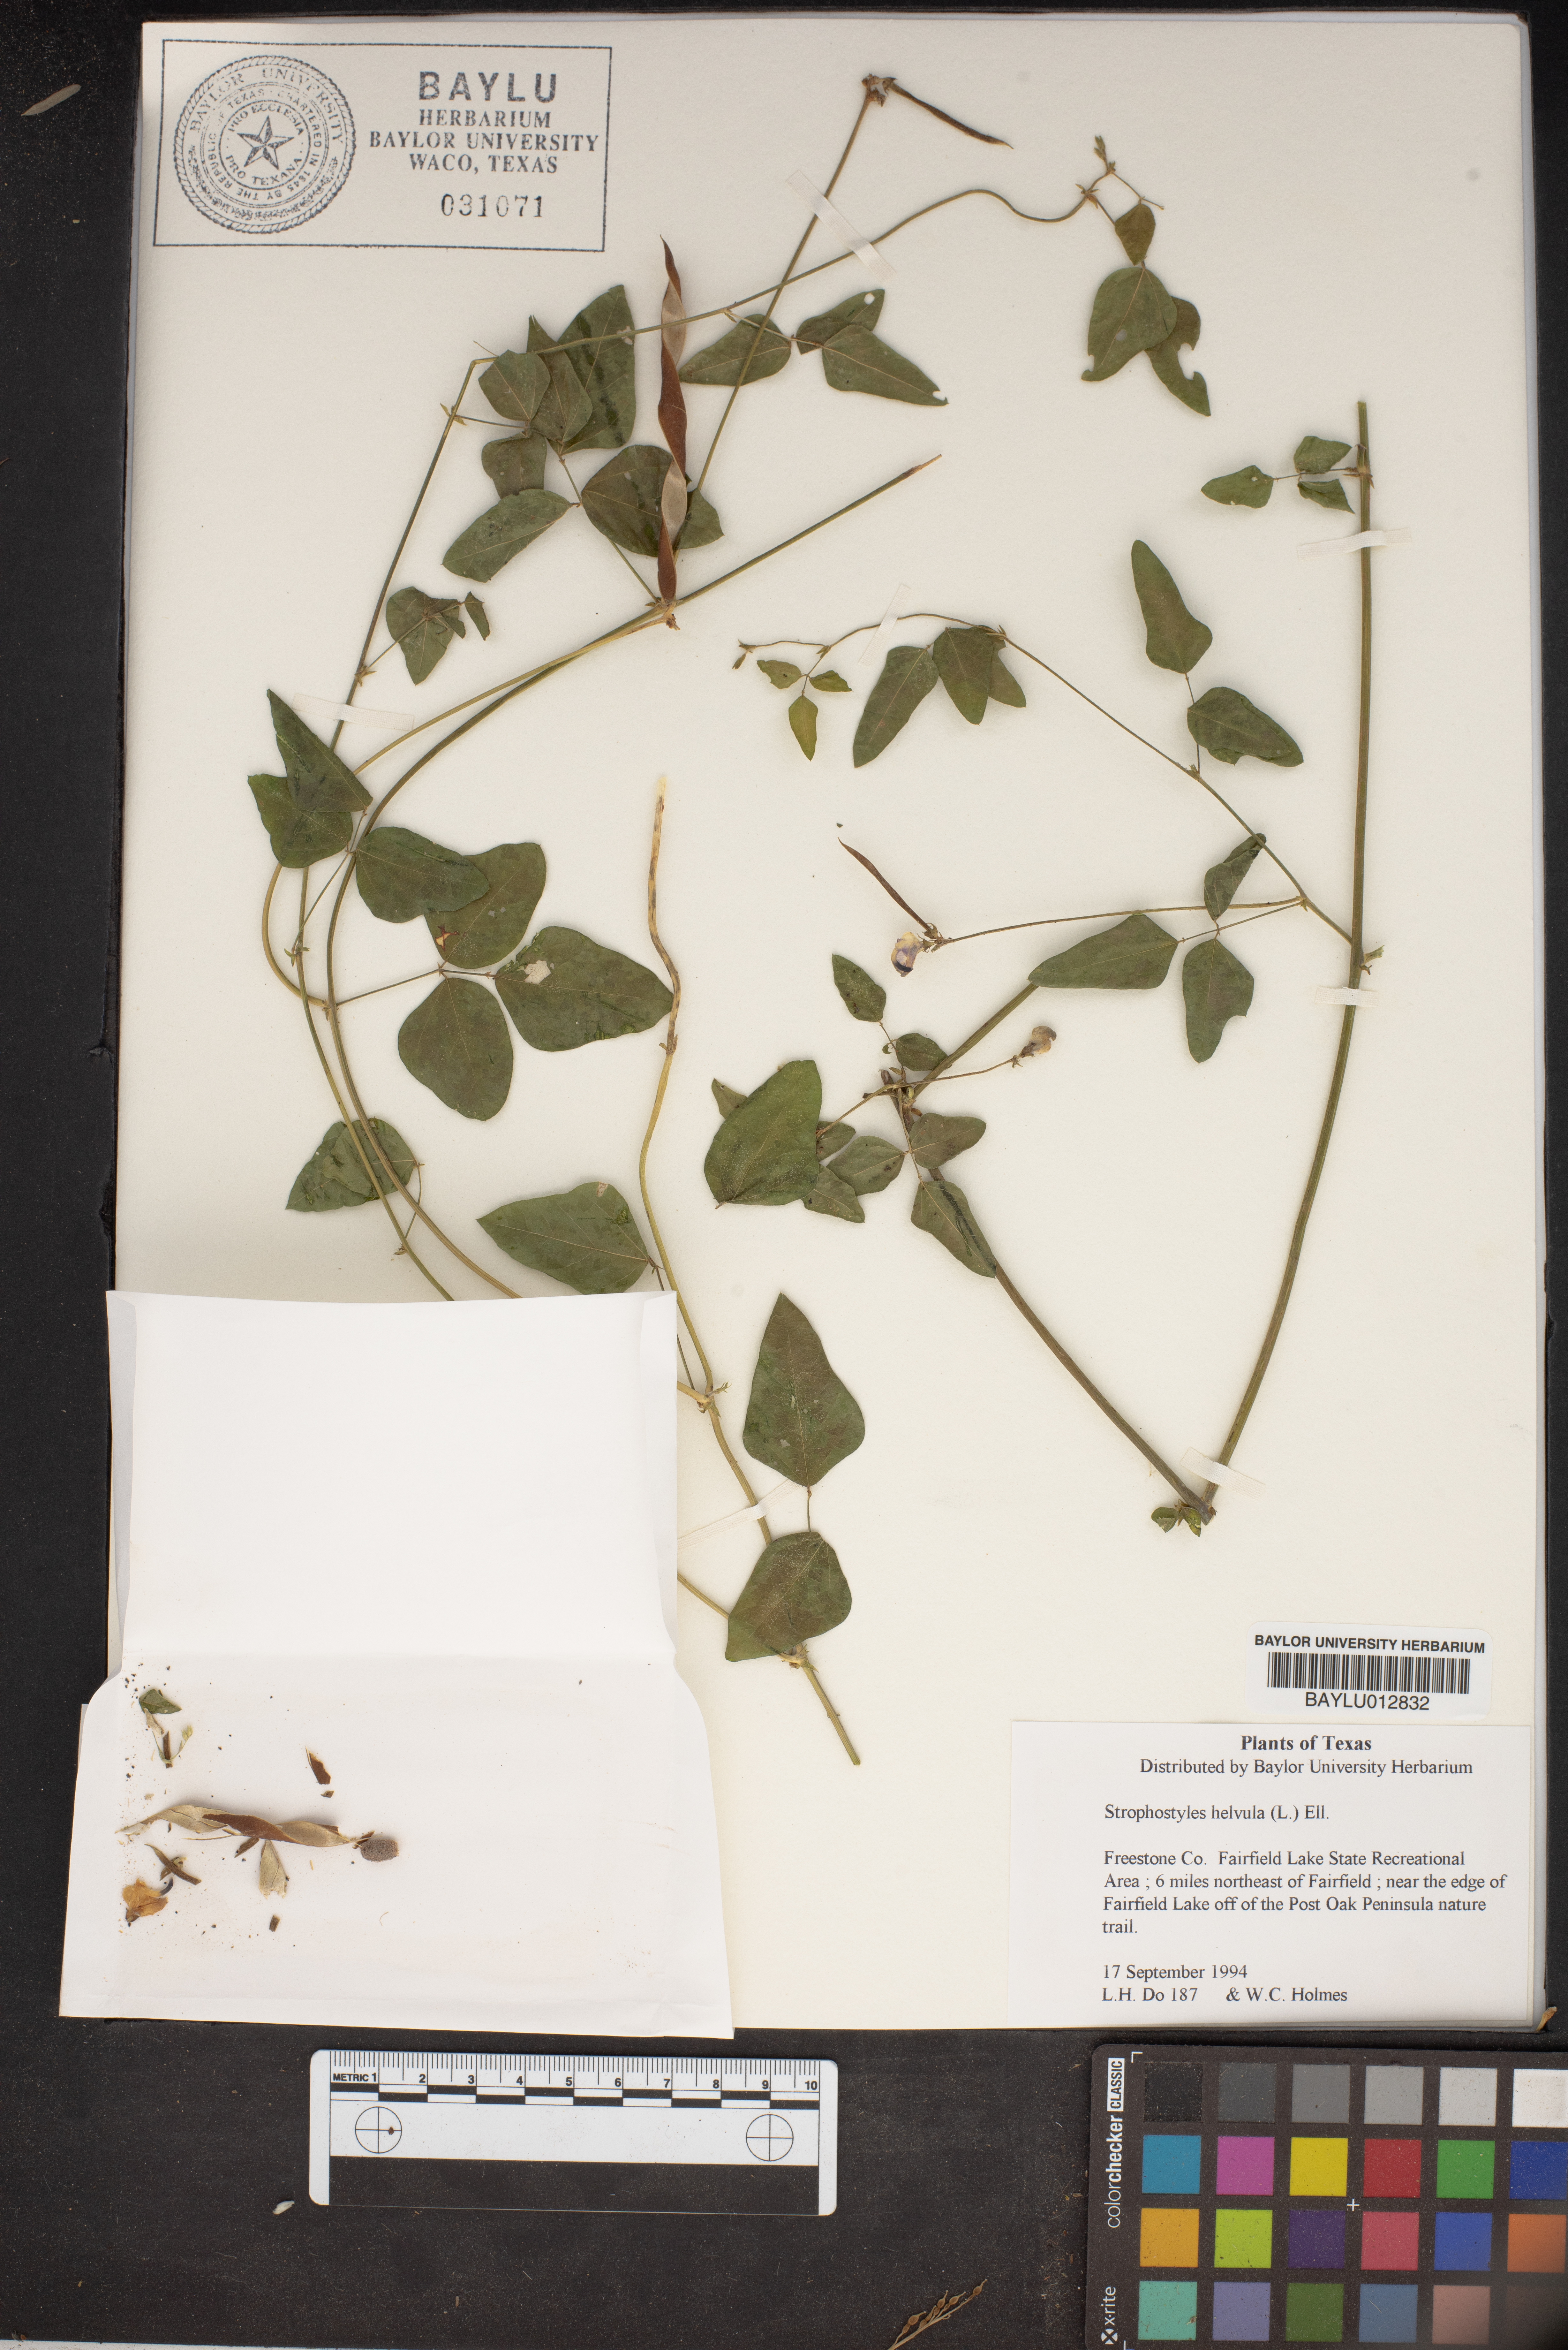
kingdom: Plantae
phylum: Tracheophyta
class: Magnoliopsida
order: Fabales
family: Fabaceae
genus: Strophostyles
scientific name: Strophostyles helvula
